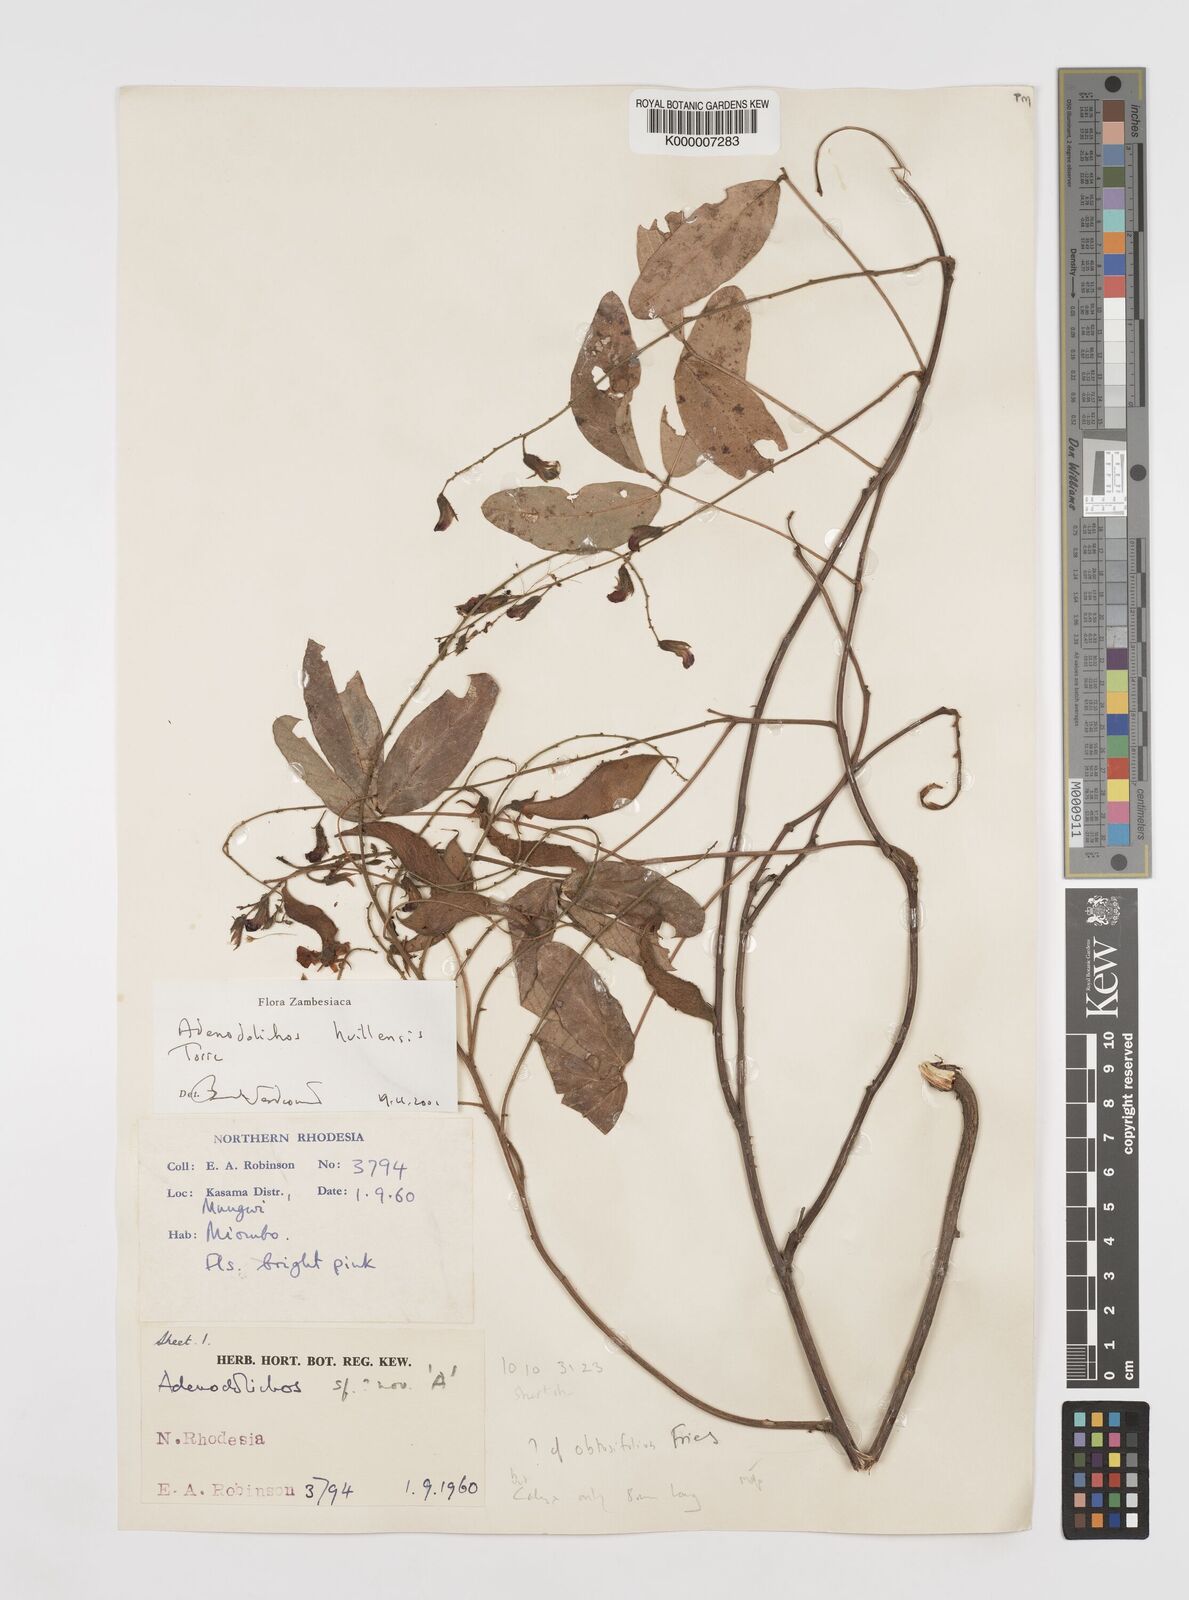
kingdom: Plantae
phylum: Tracheophyta
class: Magnoliopsida
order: Fabales
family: Fabaceae
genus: Adenodolichos
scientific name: Adenodolichos huillensis
